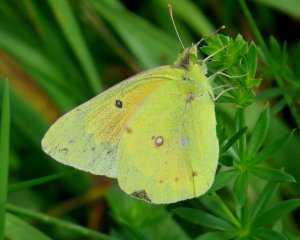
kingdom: Animalia
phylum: Arthropoda
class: Insecta
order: Lepidoptera
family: Pieridae
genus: Colias
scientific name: Colias eurytheme
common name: Orange Sulphur
